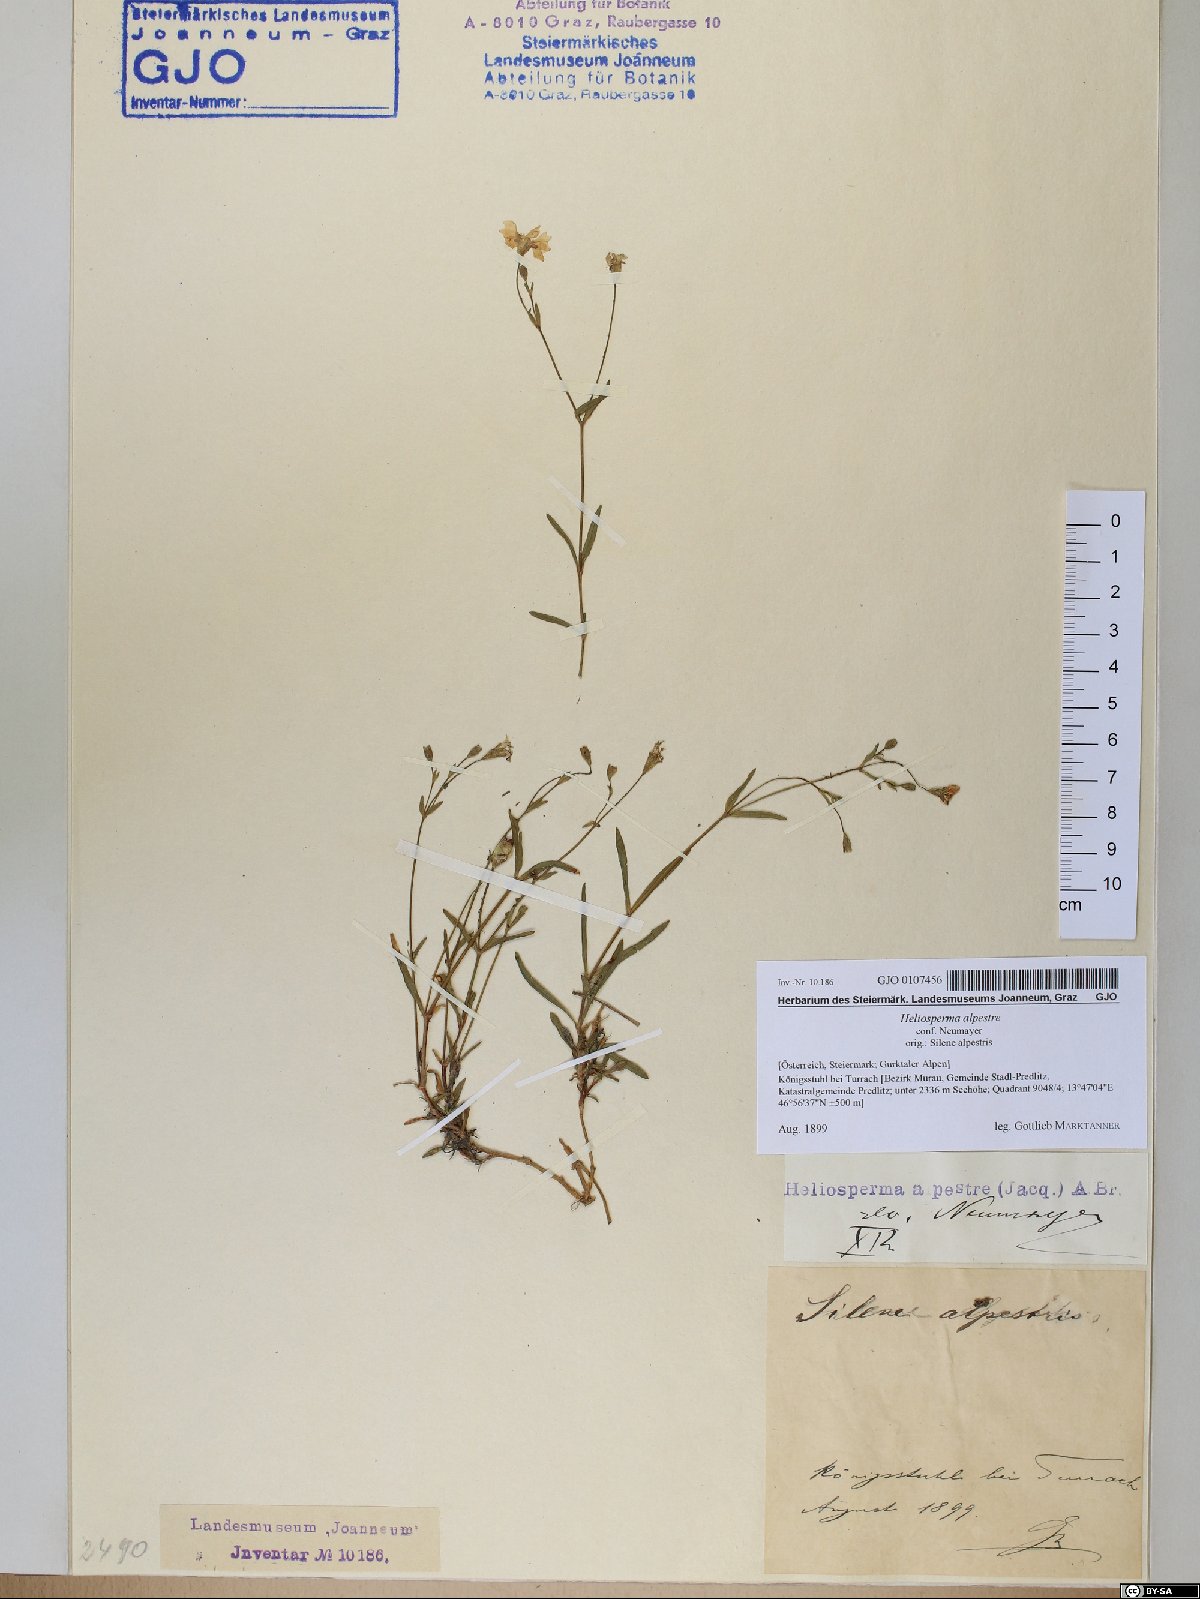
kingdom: Plantae
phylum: Tracheophyta
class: Magnoliopsida
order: Caryophyllales
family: Caryophyllaceae
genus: Heliosperma
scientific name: Heliosperma alpestre
